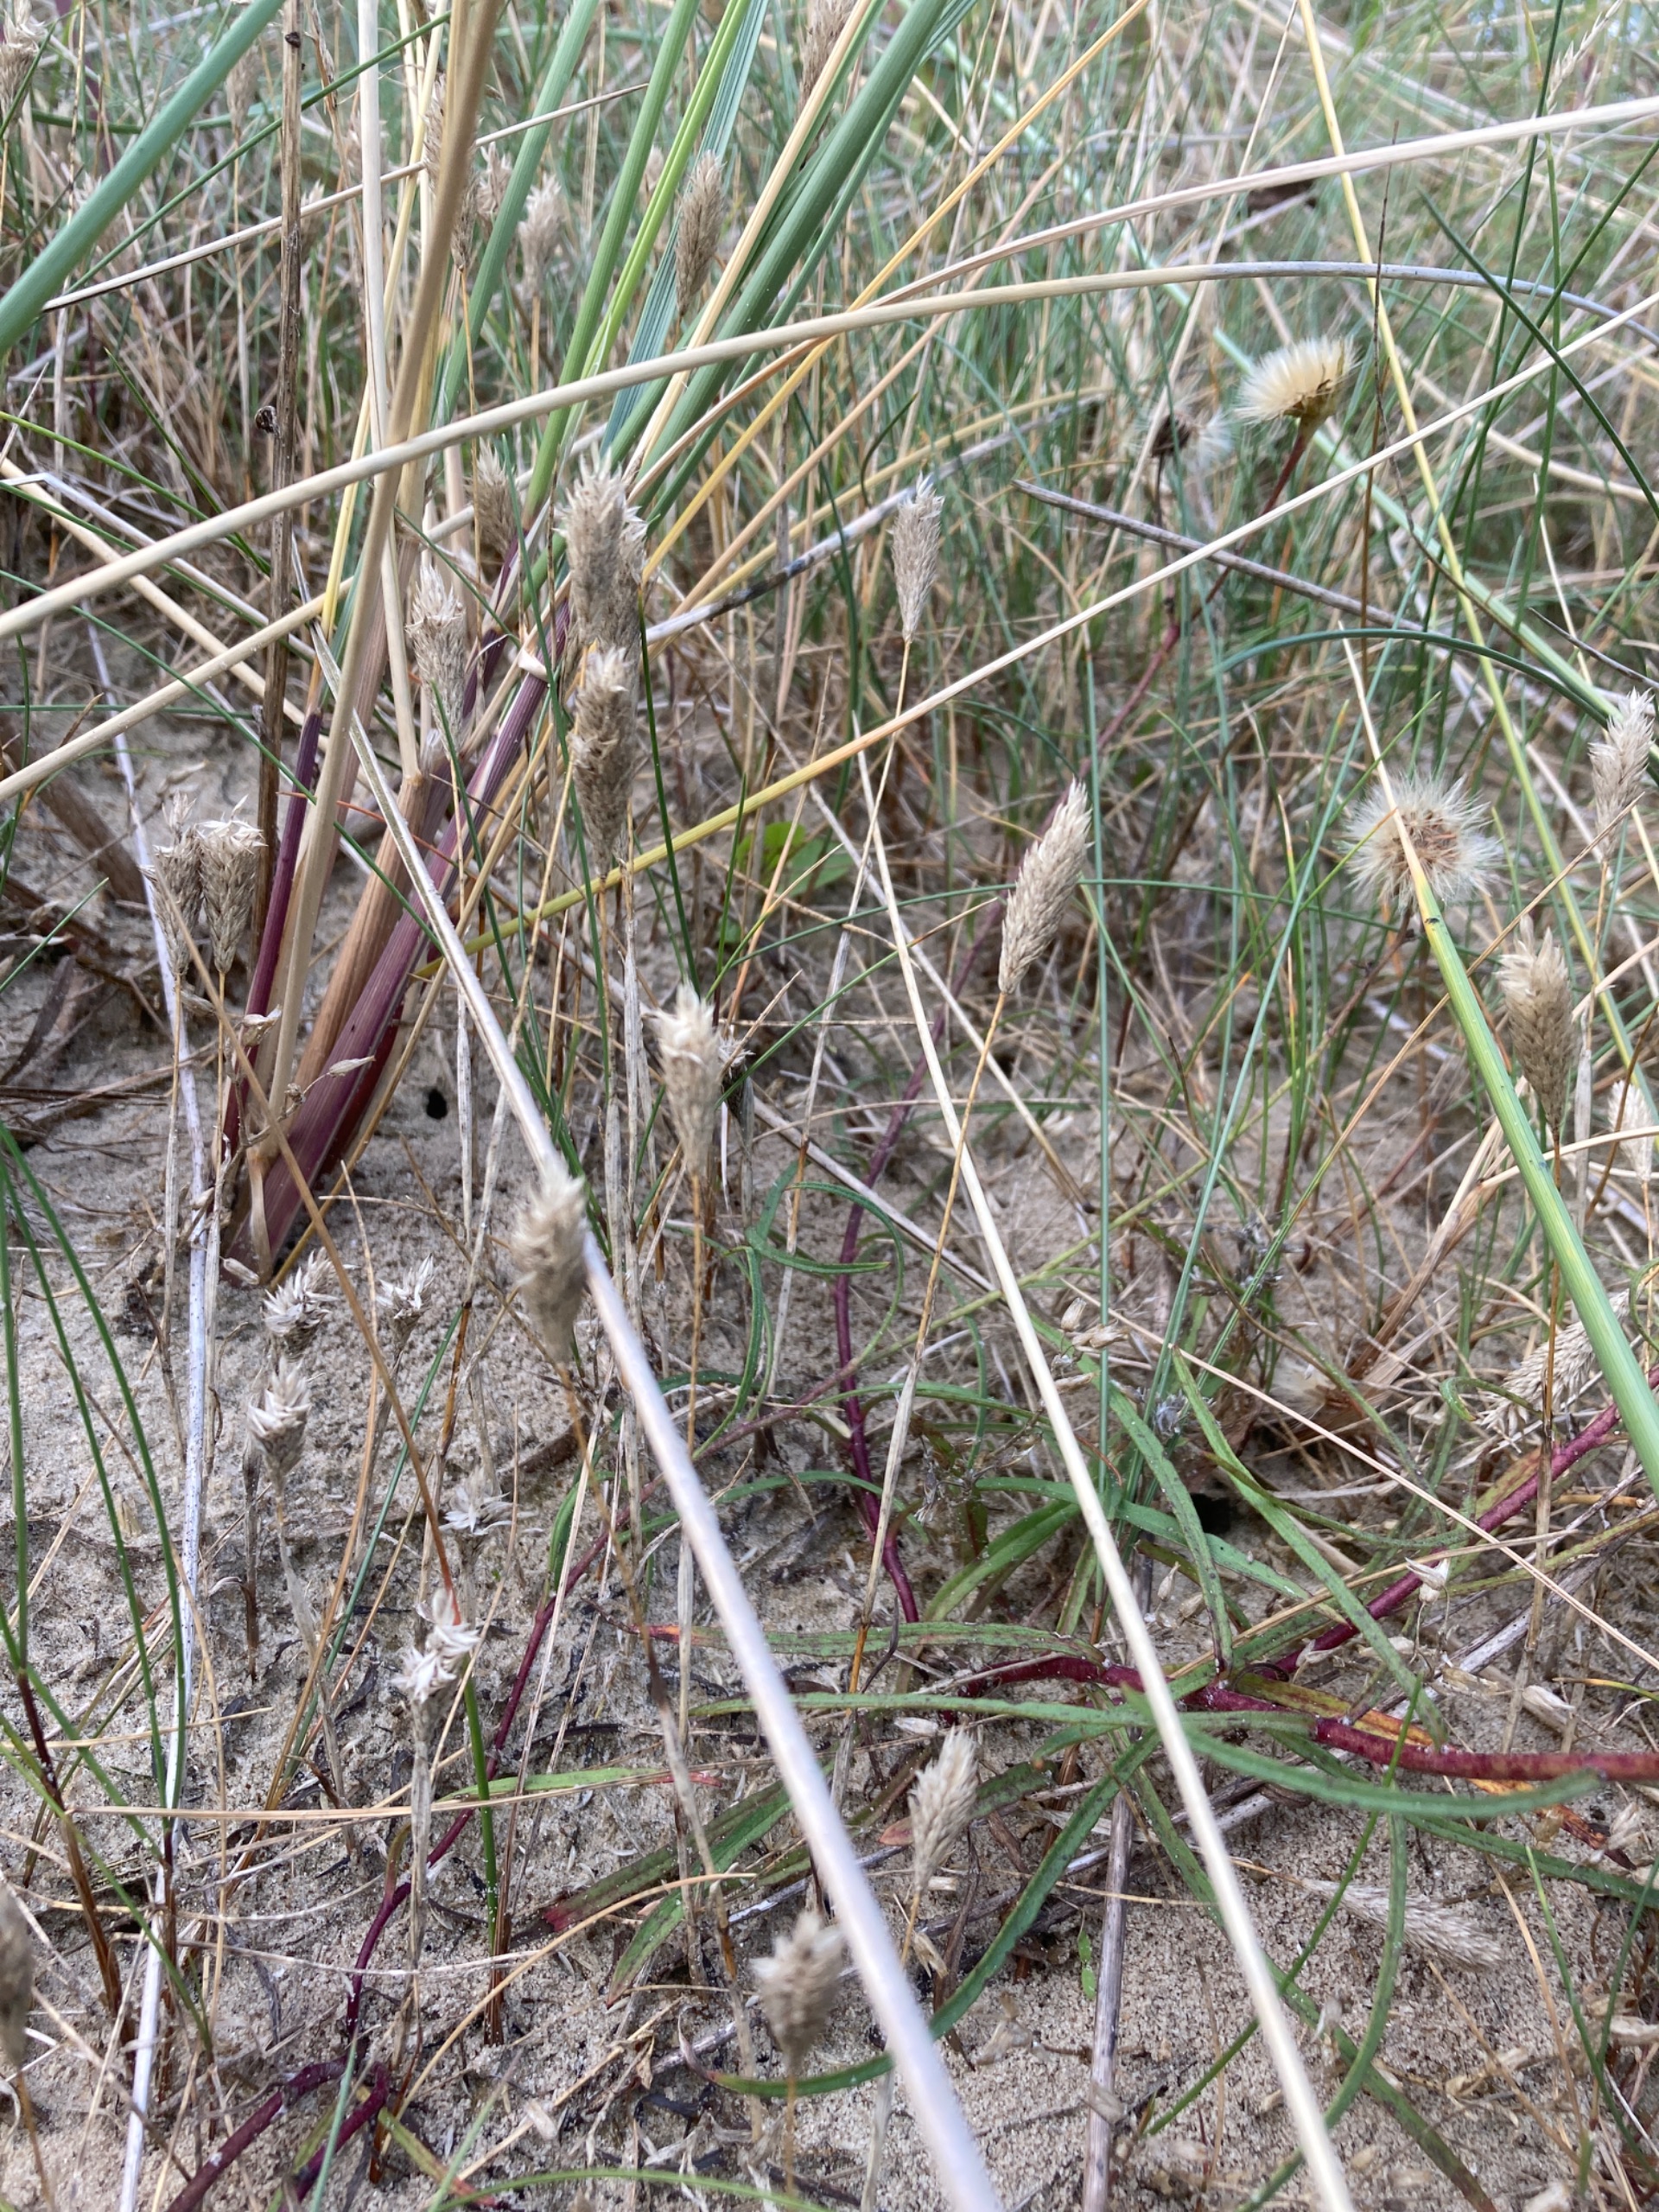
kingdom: Plantae
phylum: Tracheophyta
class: Liliopsida
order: Poales
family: Poaceae
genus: Phleum
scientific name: Phleum arenarium
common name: Sand-rottehale
